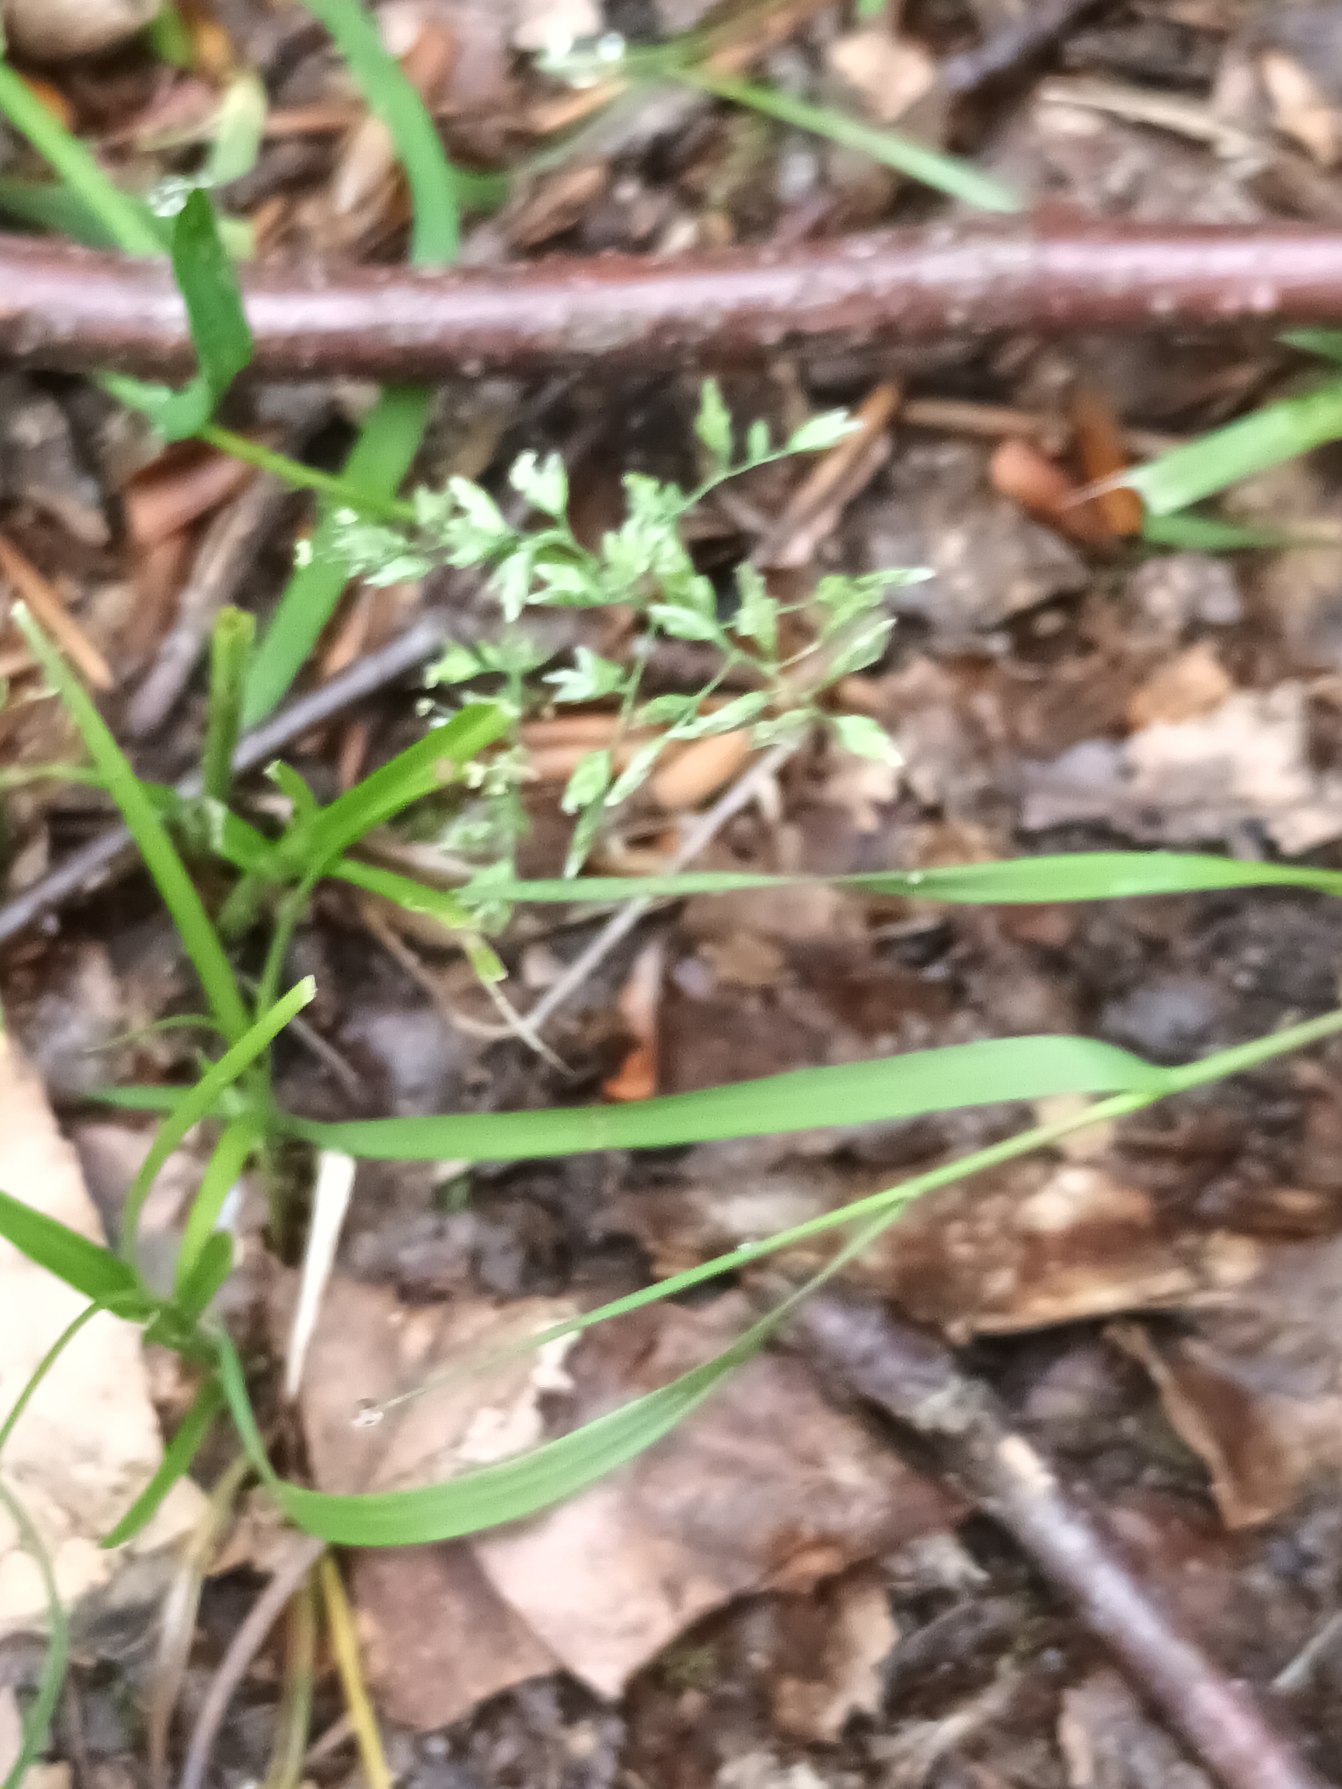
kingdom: Plantae
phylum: Tracheophyta
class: Liliopsida
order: Poales
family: Poaceae
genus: Poa
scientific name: Poa annua
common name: Enårig rapgræs
